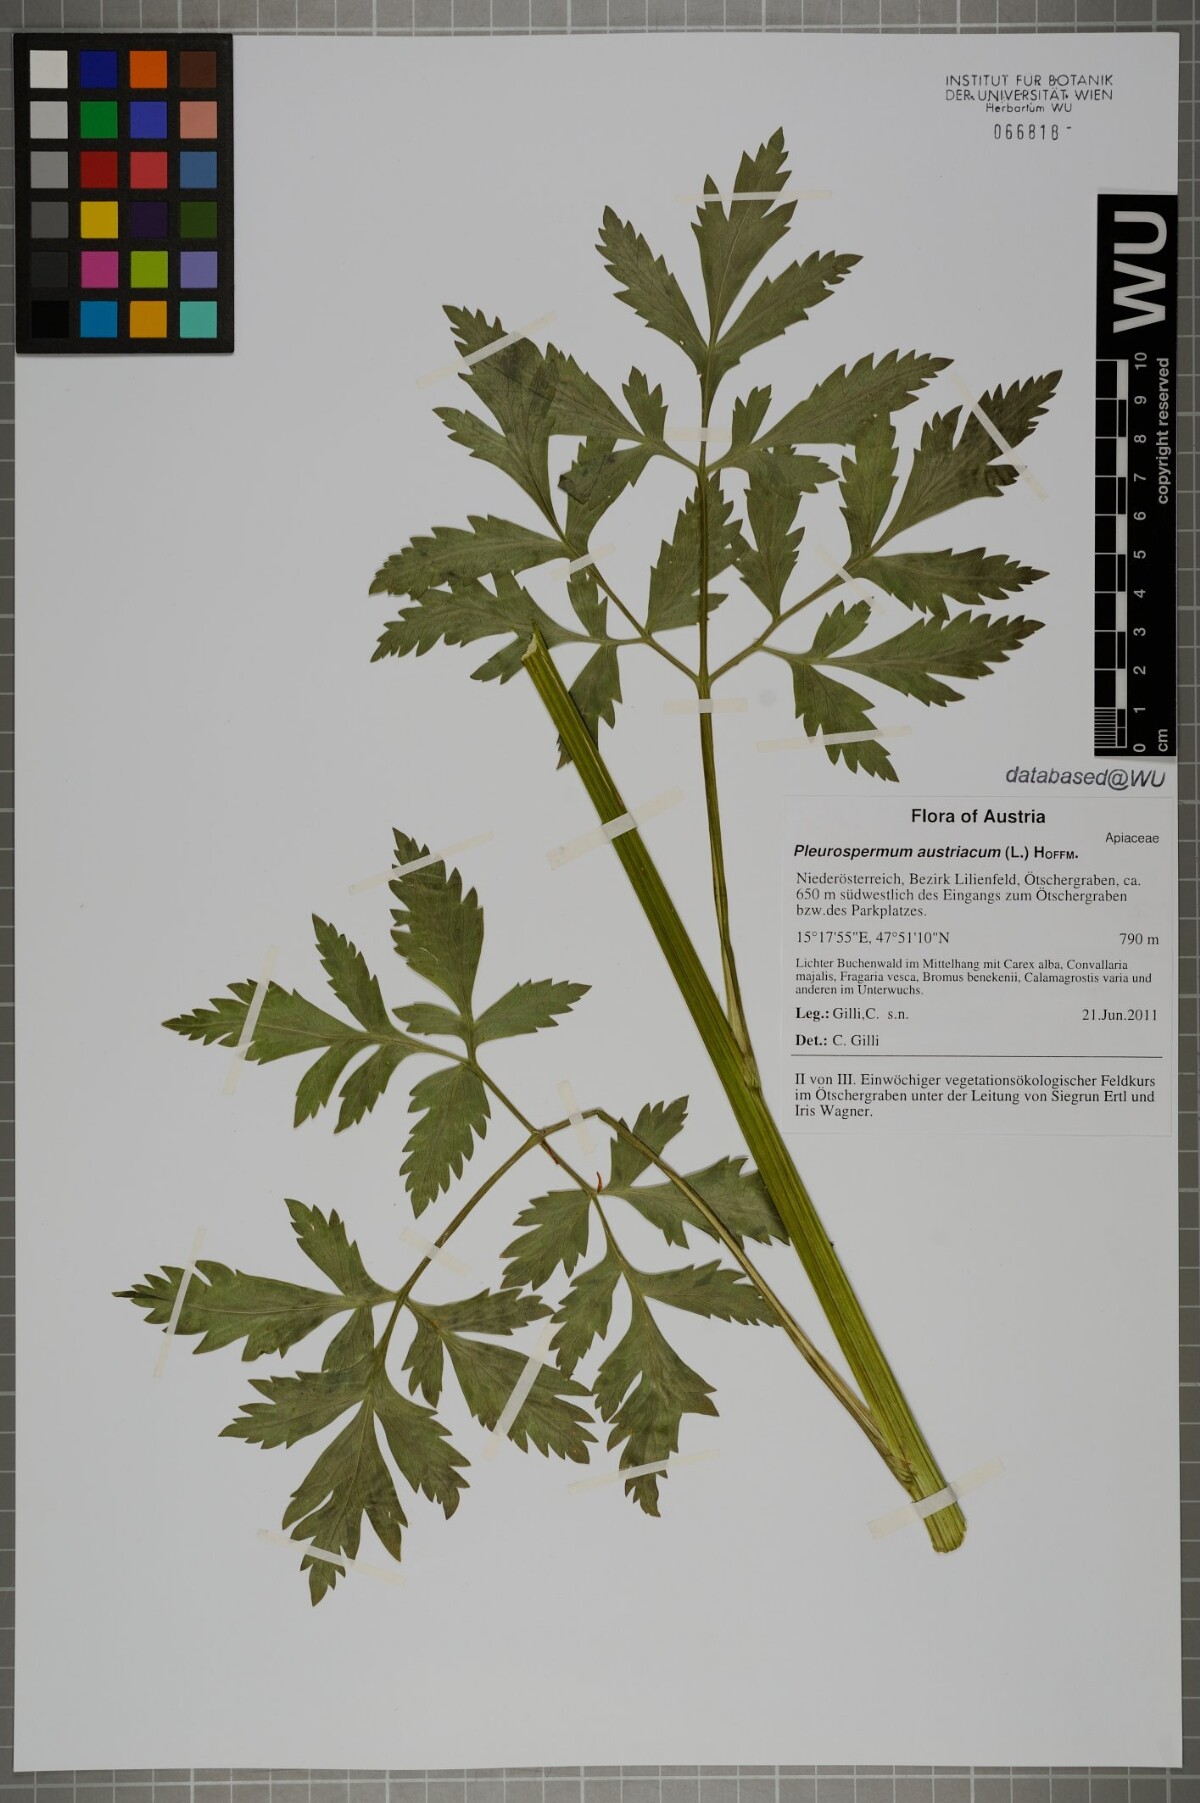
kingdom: Plantae
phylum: Tracheophyta
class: Magnoliopsida
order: Apiales
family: Apiaceae
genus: Pleurospermum
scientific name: Pleurospermum austriacum
